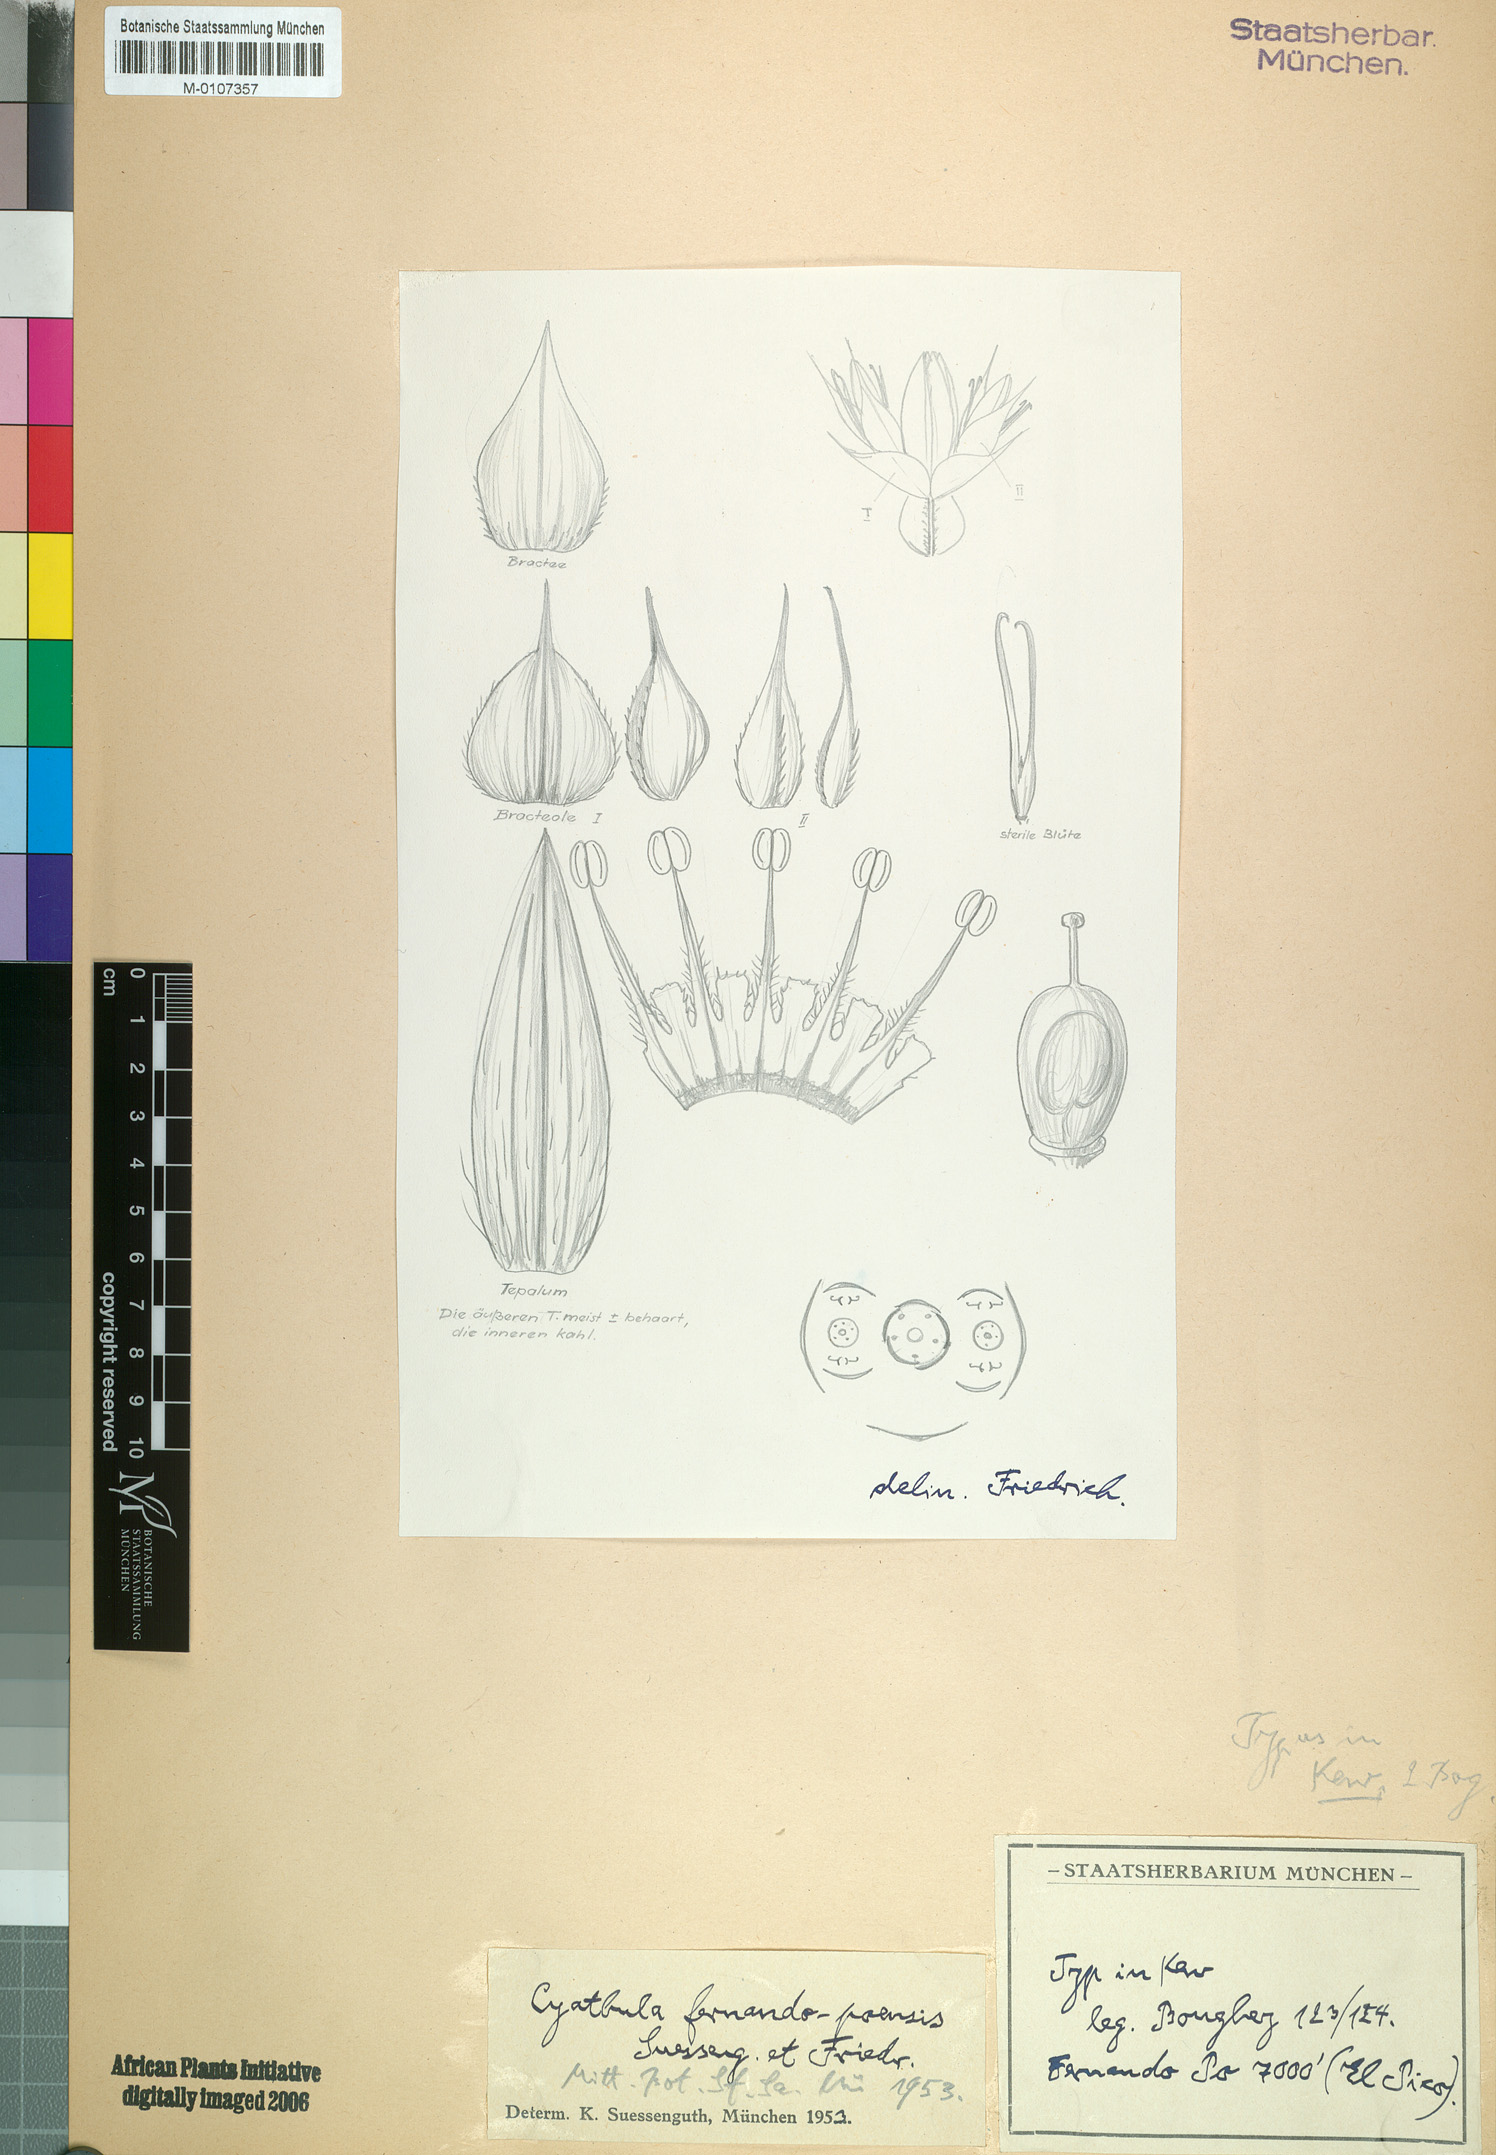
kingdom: Plantae
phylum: Tracheophyta
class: Magnoliopsida
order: Caryophyllales
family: Amaranthaceae
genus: Cyathula
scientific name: Cyathula fernando-poensis
